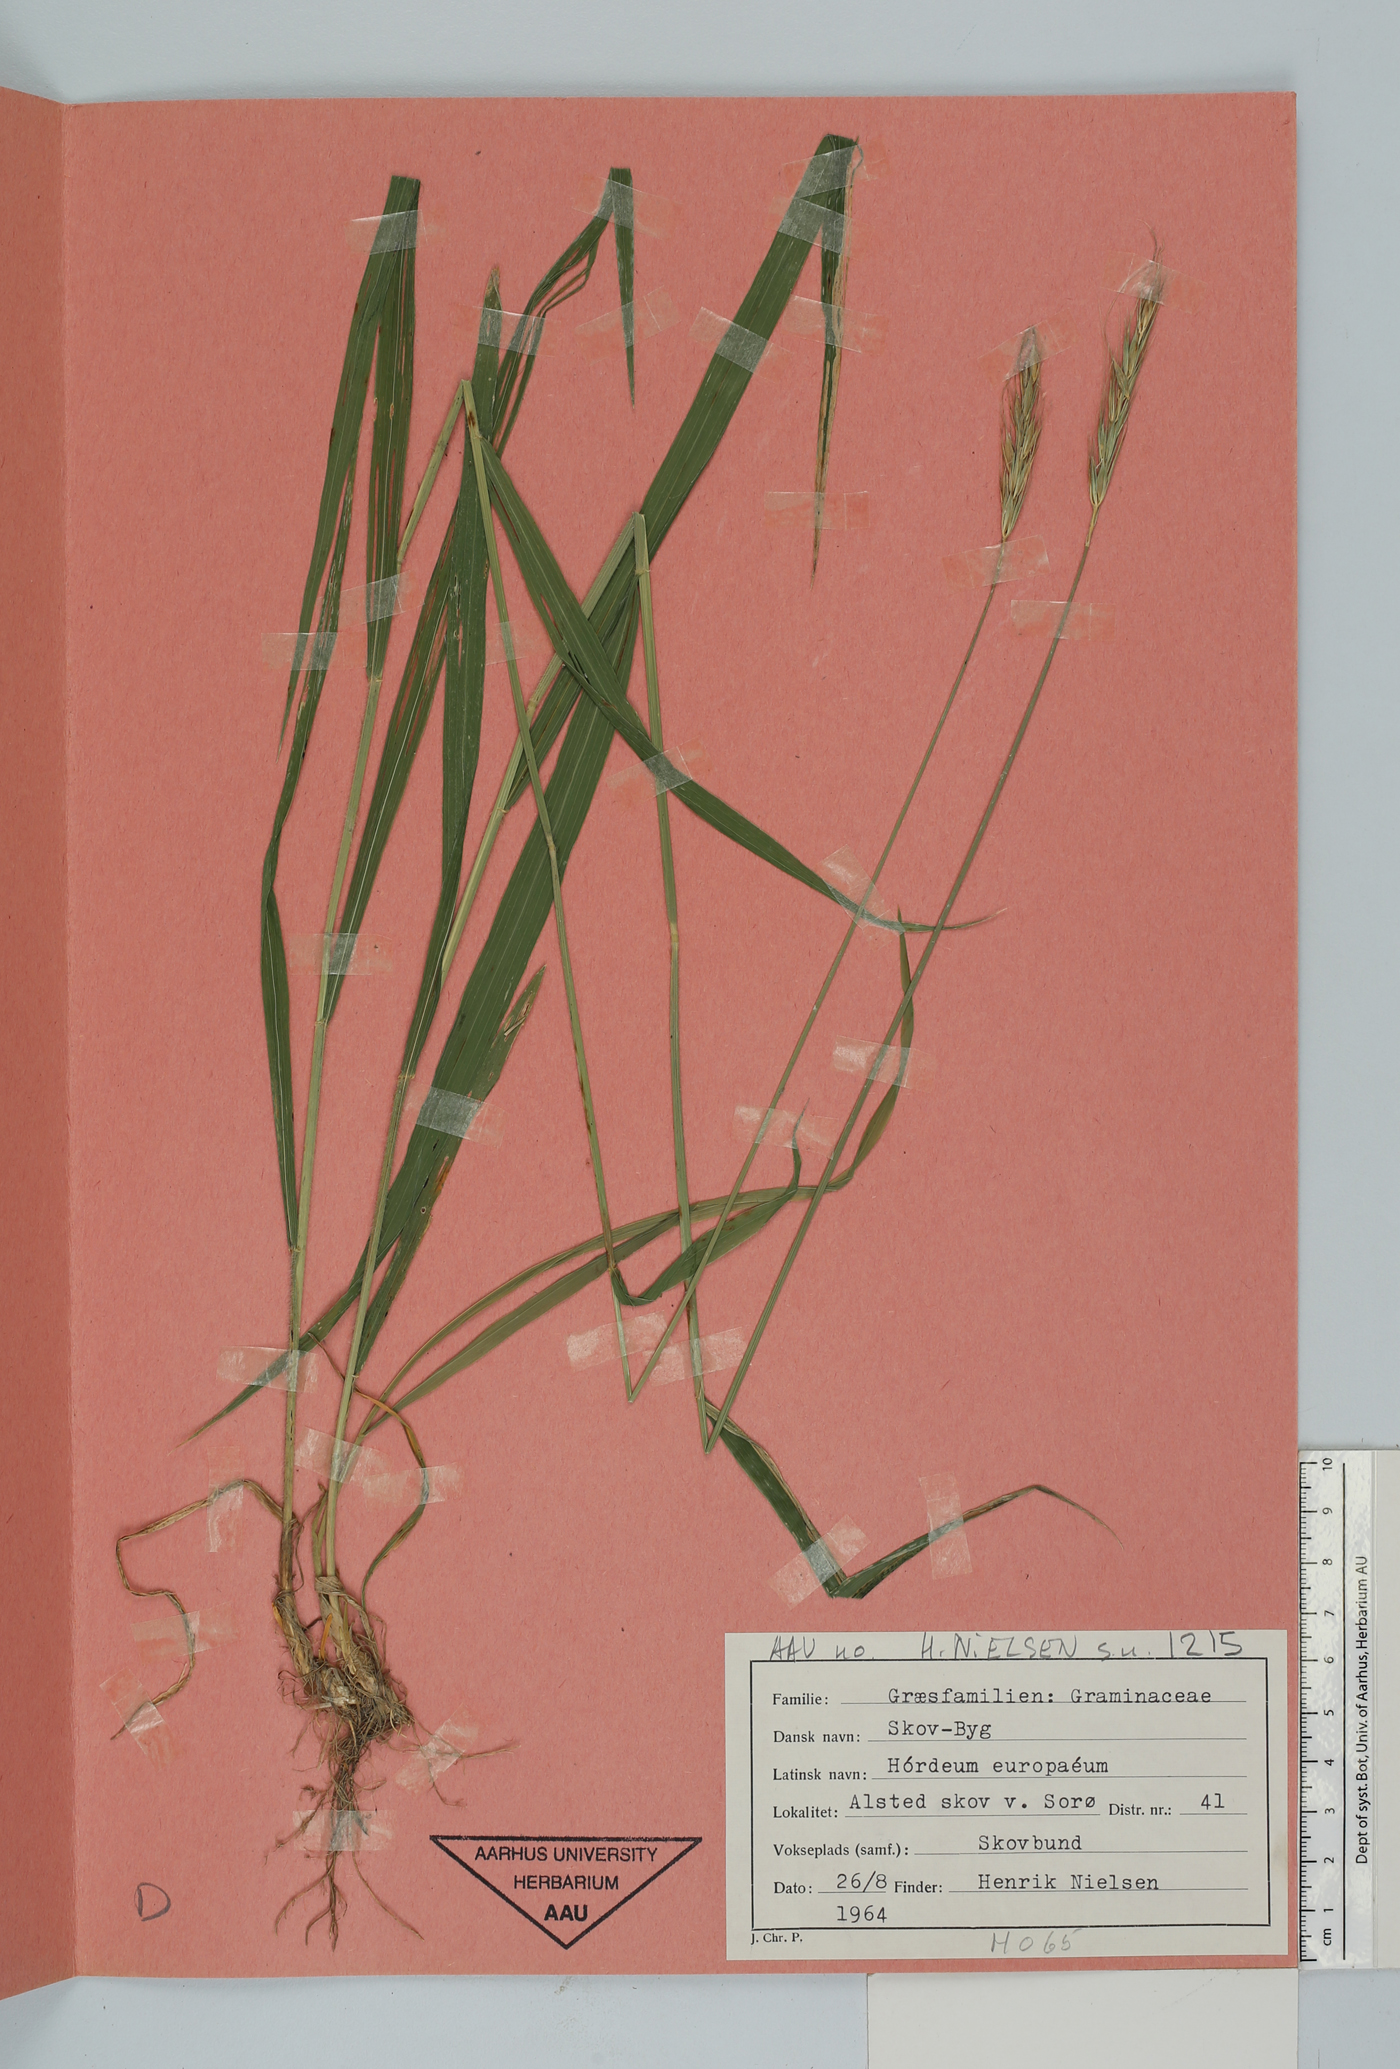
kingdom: Plantae
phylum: Tracheophyta
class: Liliopsida
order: Poales
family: Poaceae
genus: Hordelymus
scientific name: Hordelymus europaeus
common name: Wood-barley
